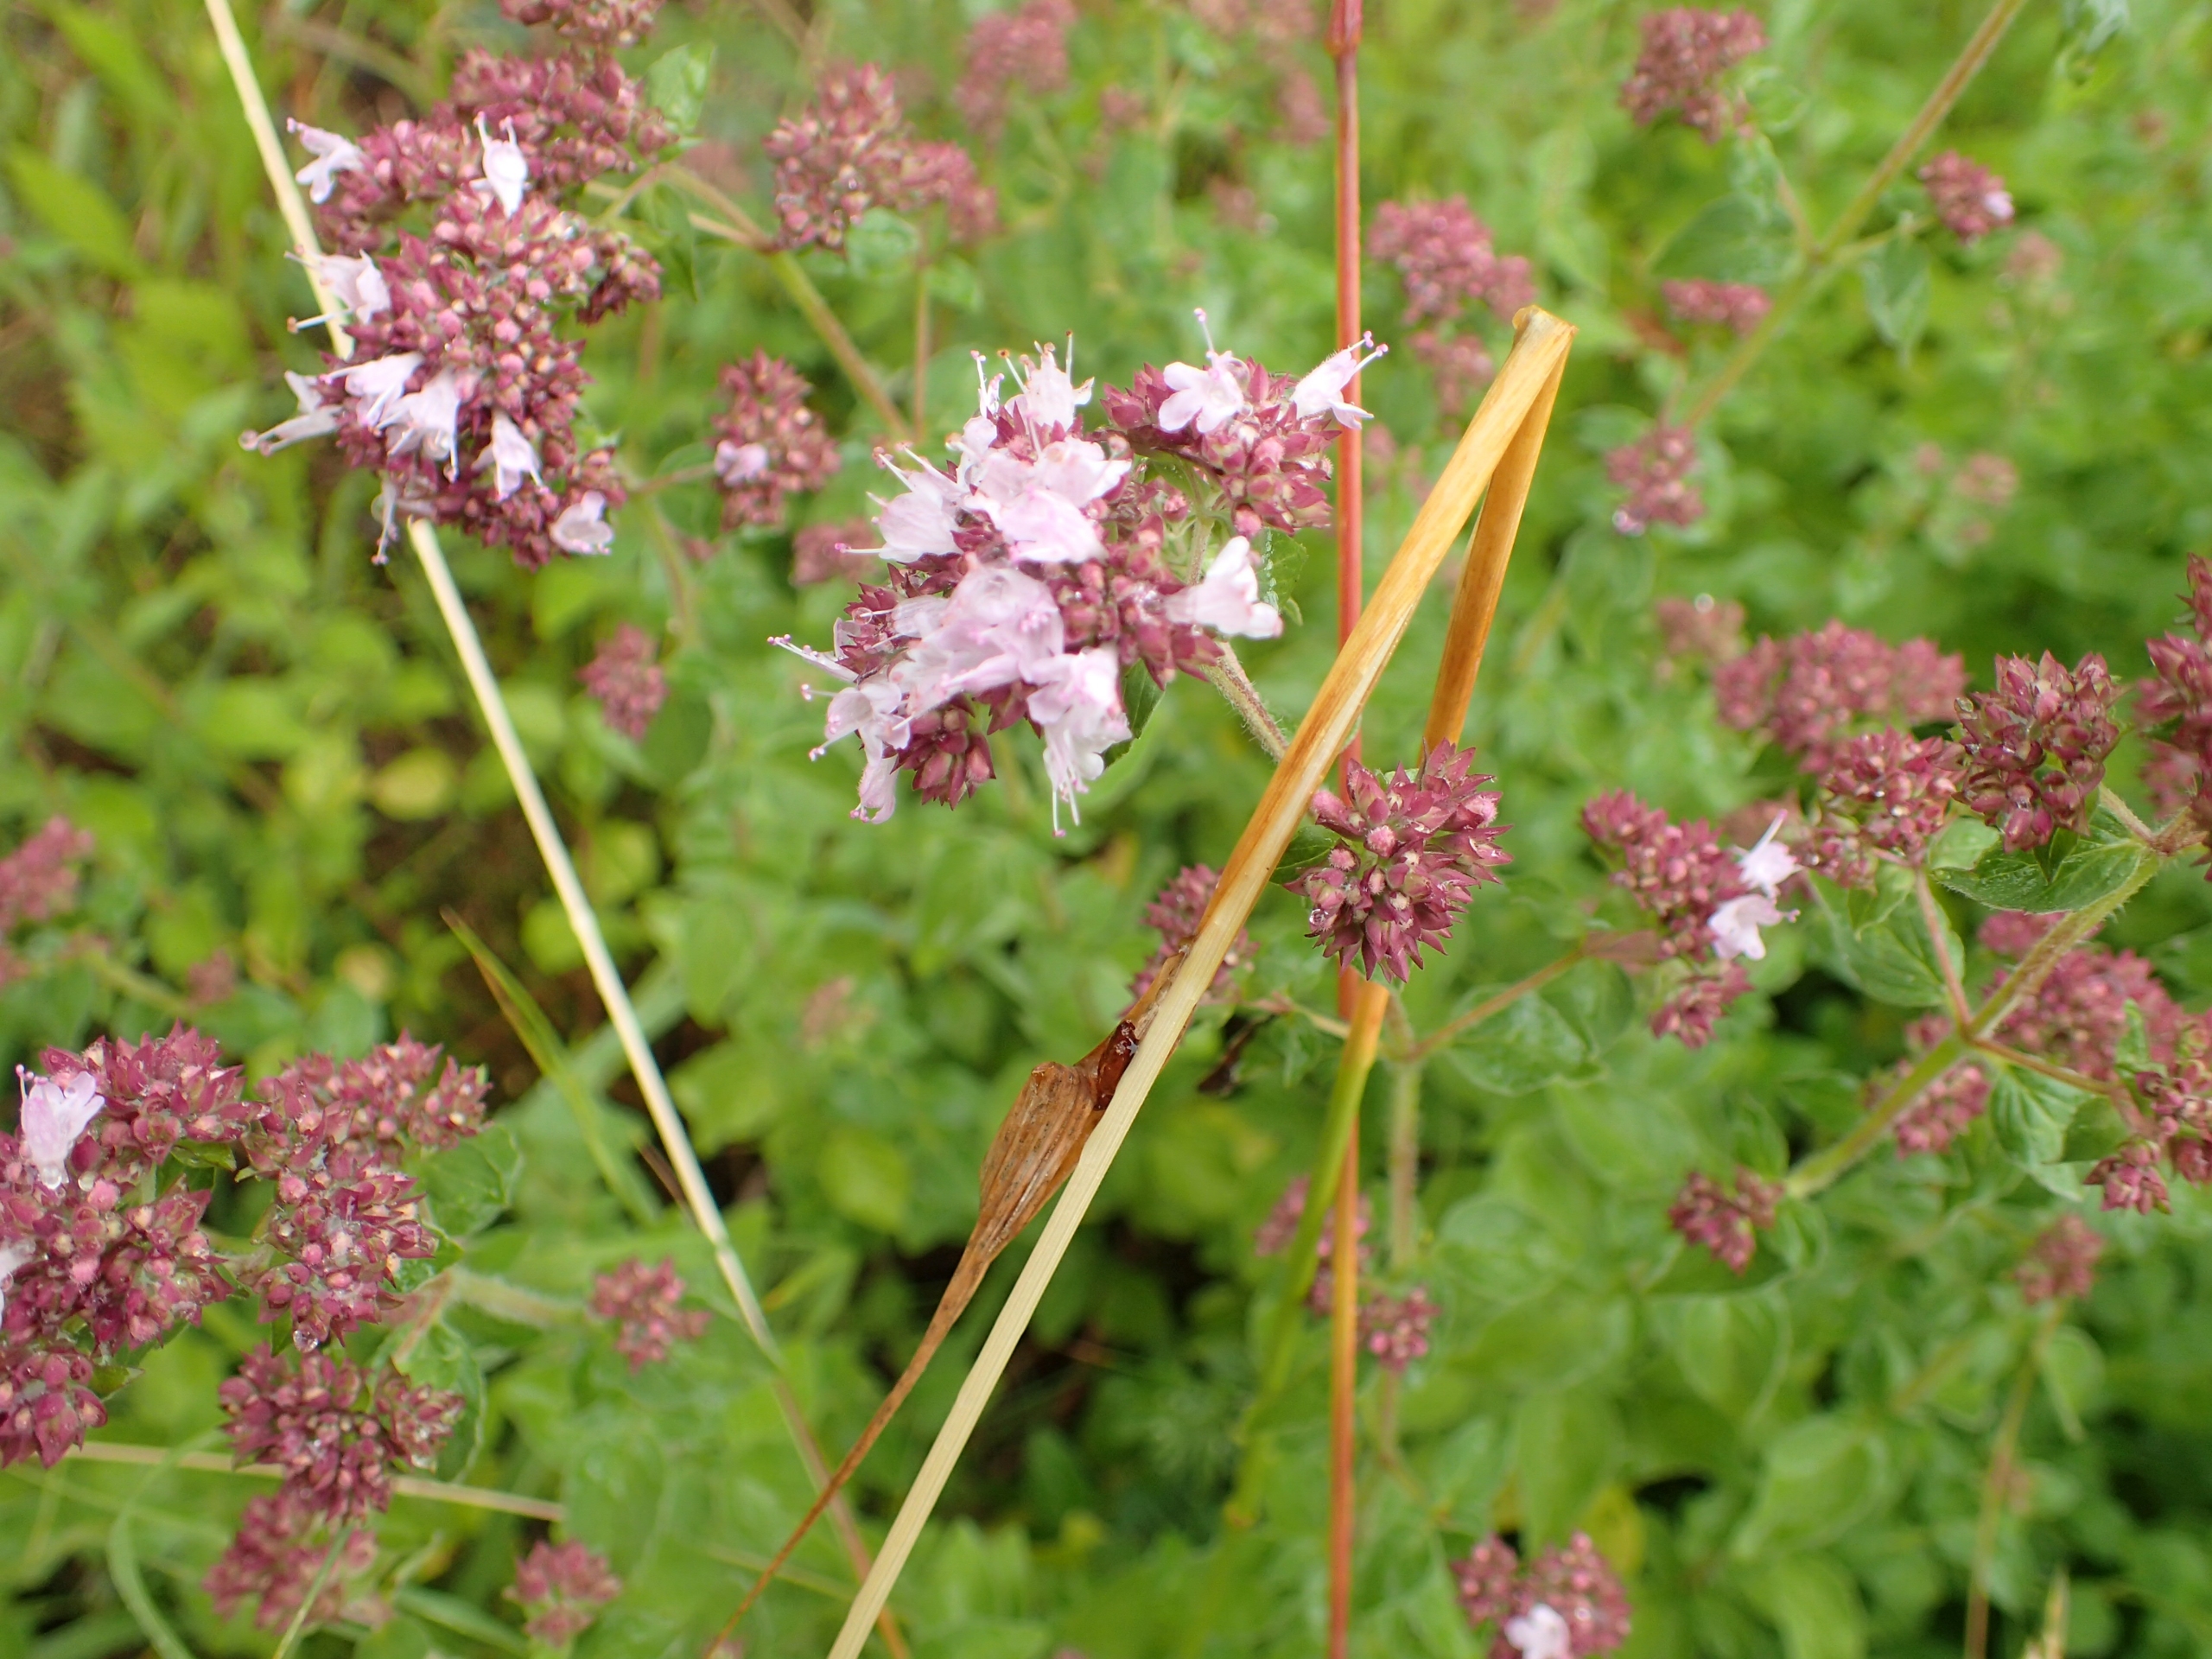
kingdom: Plantae
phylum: Tracheophyta
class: Magnoliopsida
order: Lamiales
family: Lamiaceae
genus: Origanum
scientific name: Origanum vulgare
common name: Merian
